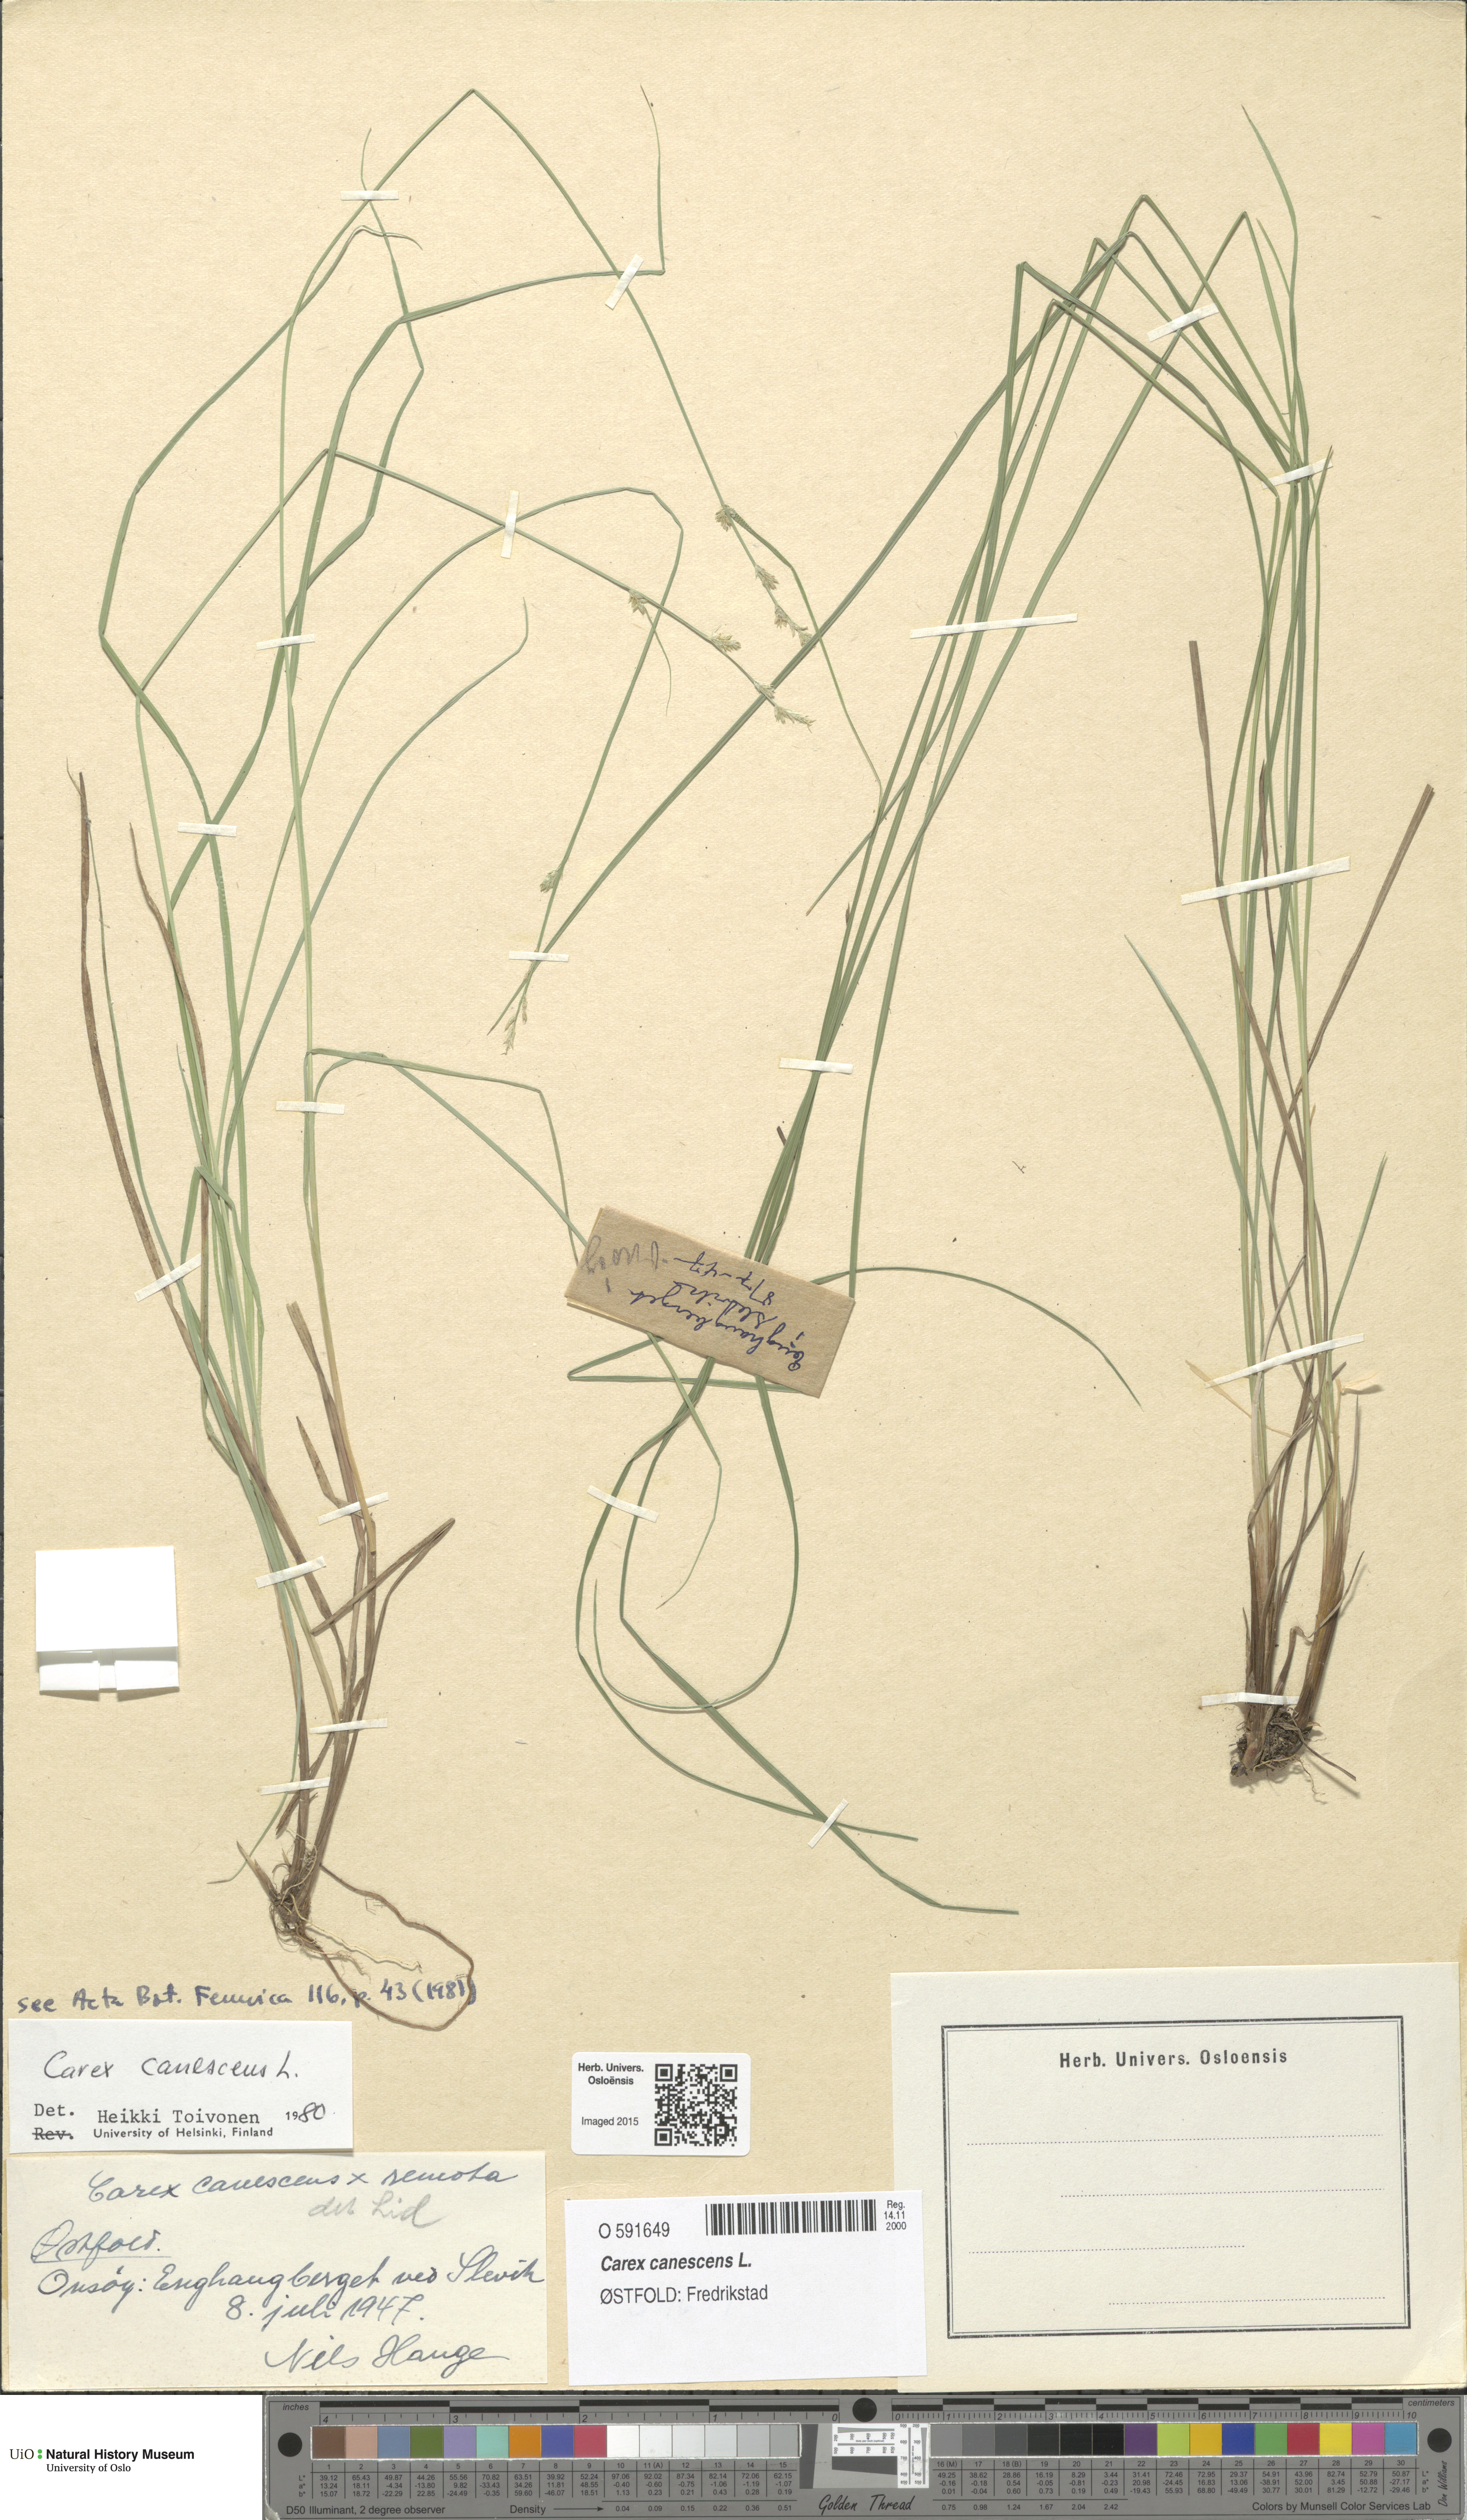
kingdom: Plantae
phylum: Tracheophyta
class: Liliopsida
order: Poales
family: Cyperaceae
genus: Carex
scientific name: Carex canescens
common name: White sedge
